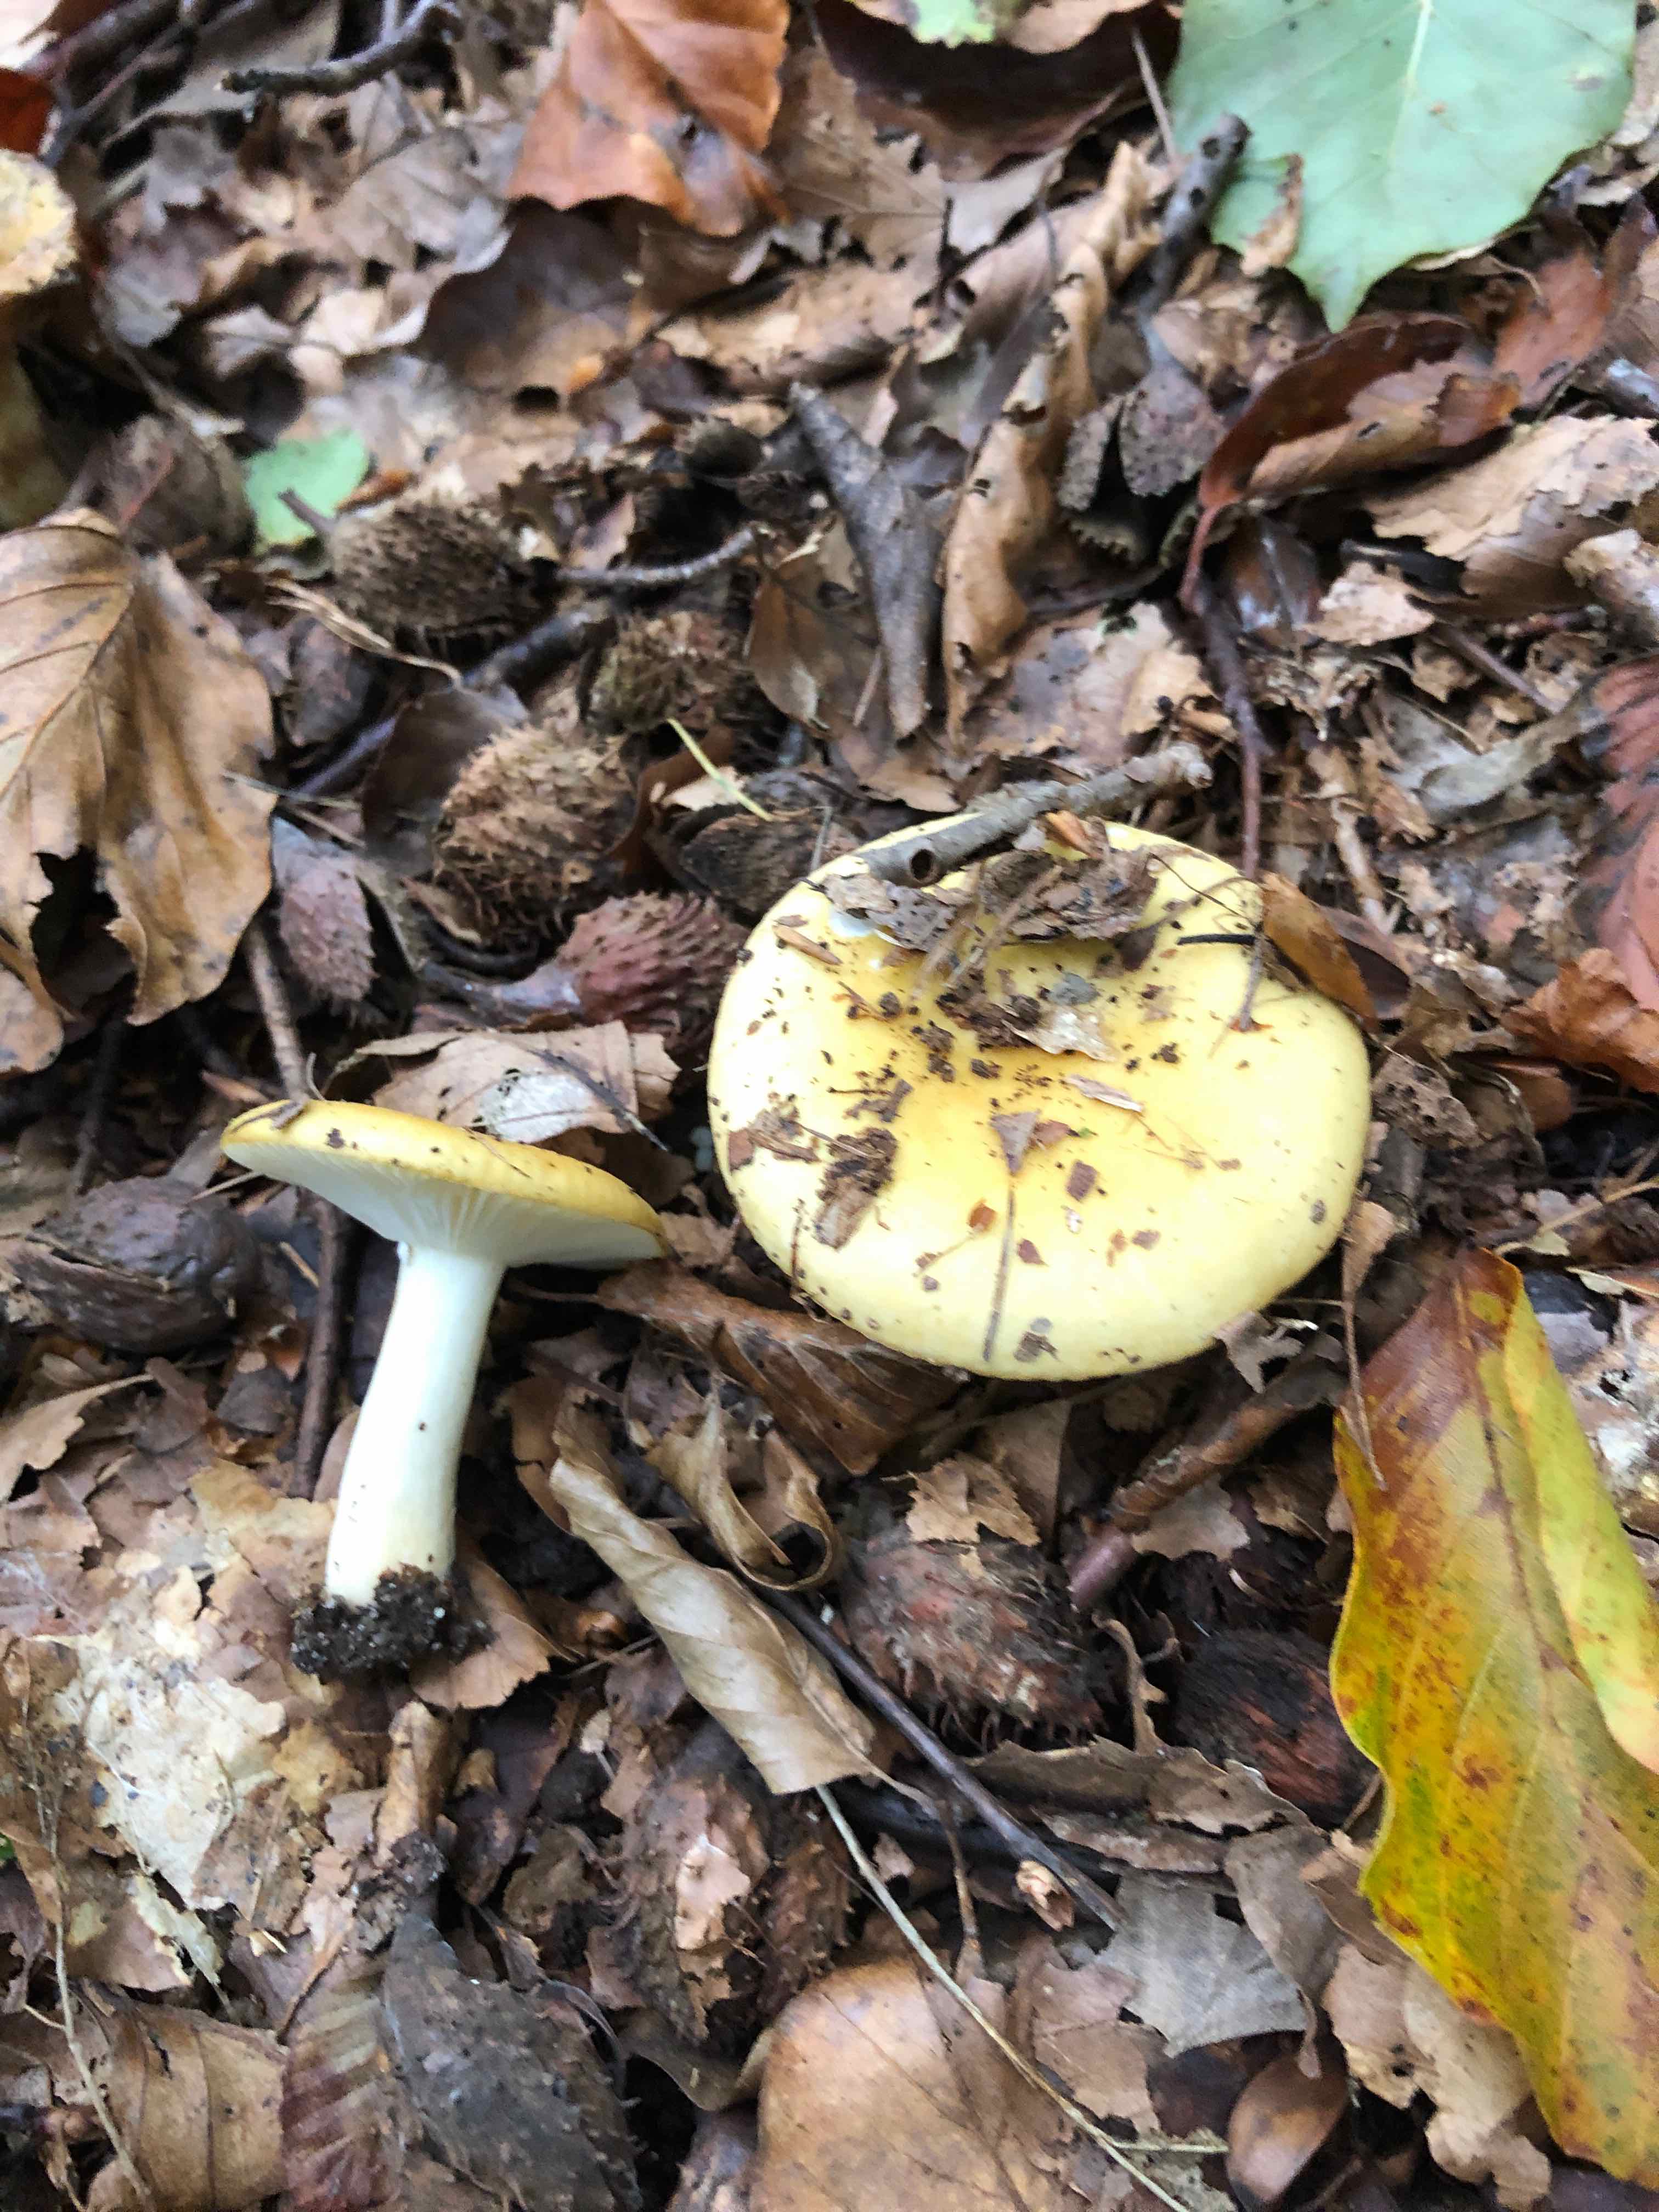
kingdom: Fungi
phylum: Basidiomycota
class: Agaricomycetes
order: Russulales
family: Russulaceae
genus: Russula
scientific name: Russula ochroleuca
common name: okkergul skørhat
